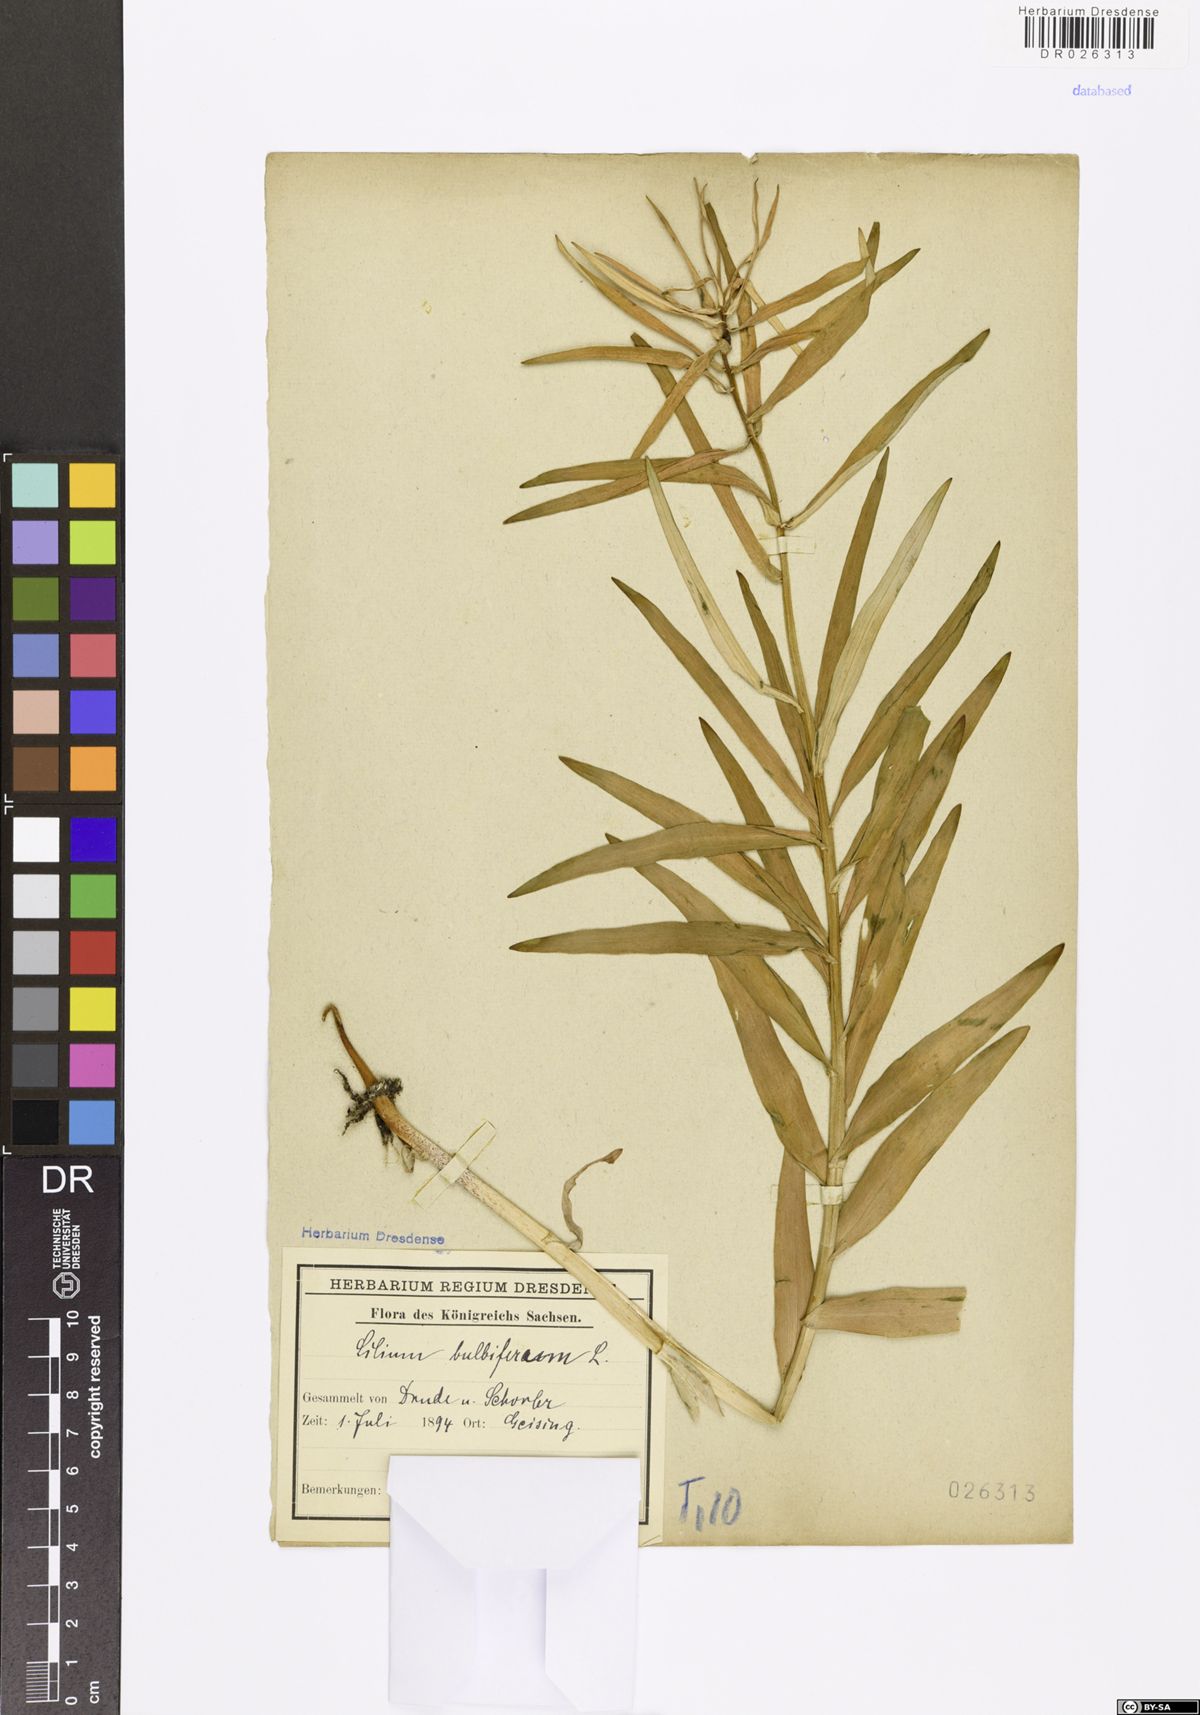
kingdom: Plantae
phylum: Tracheophyta
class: Liliopsida
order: Liliales
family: Liliaceae
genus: Lilium
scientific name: Lilium bulbiferum
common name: Orange lily
